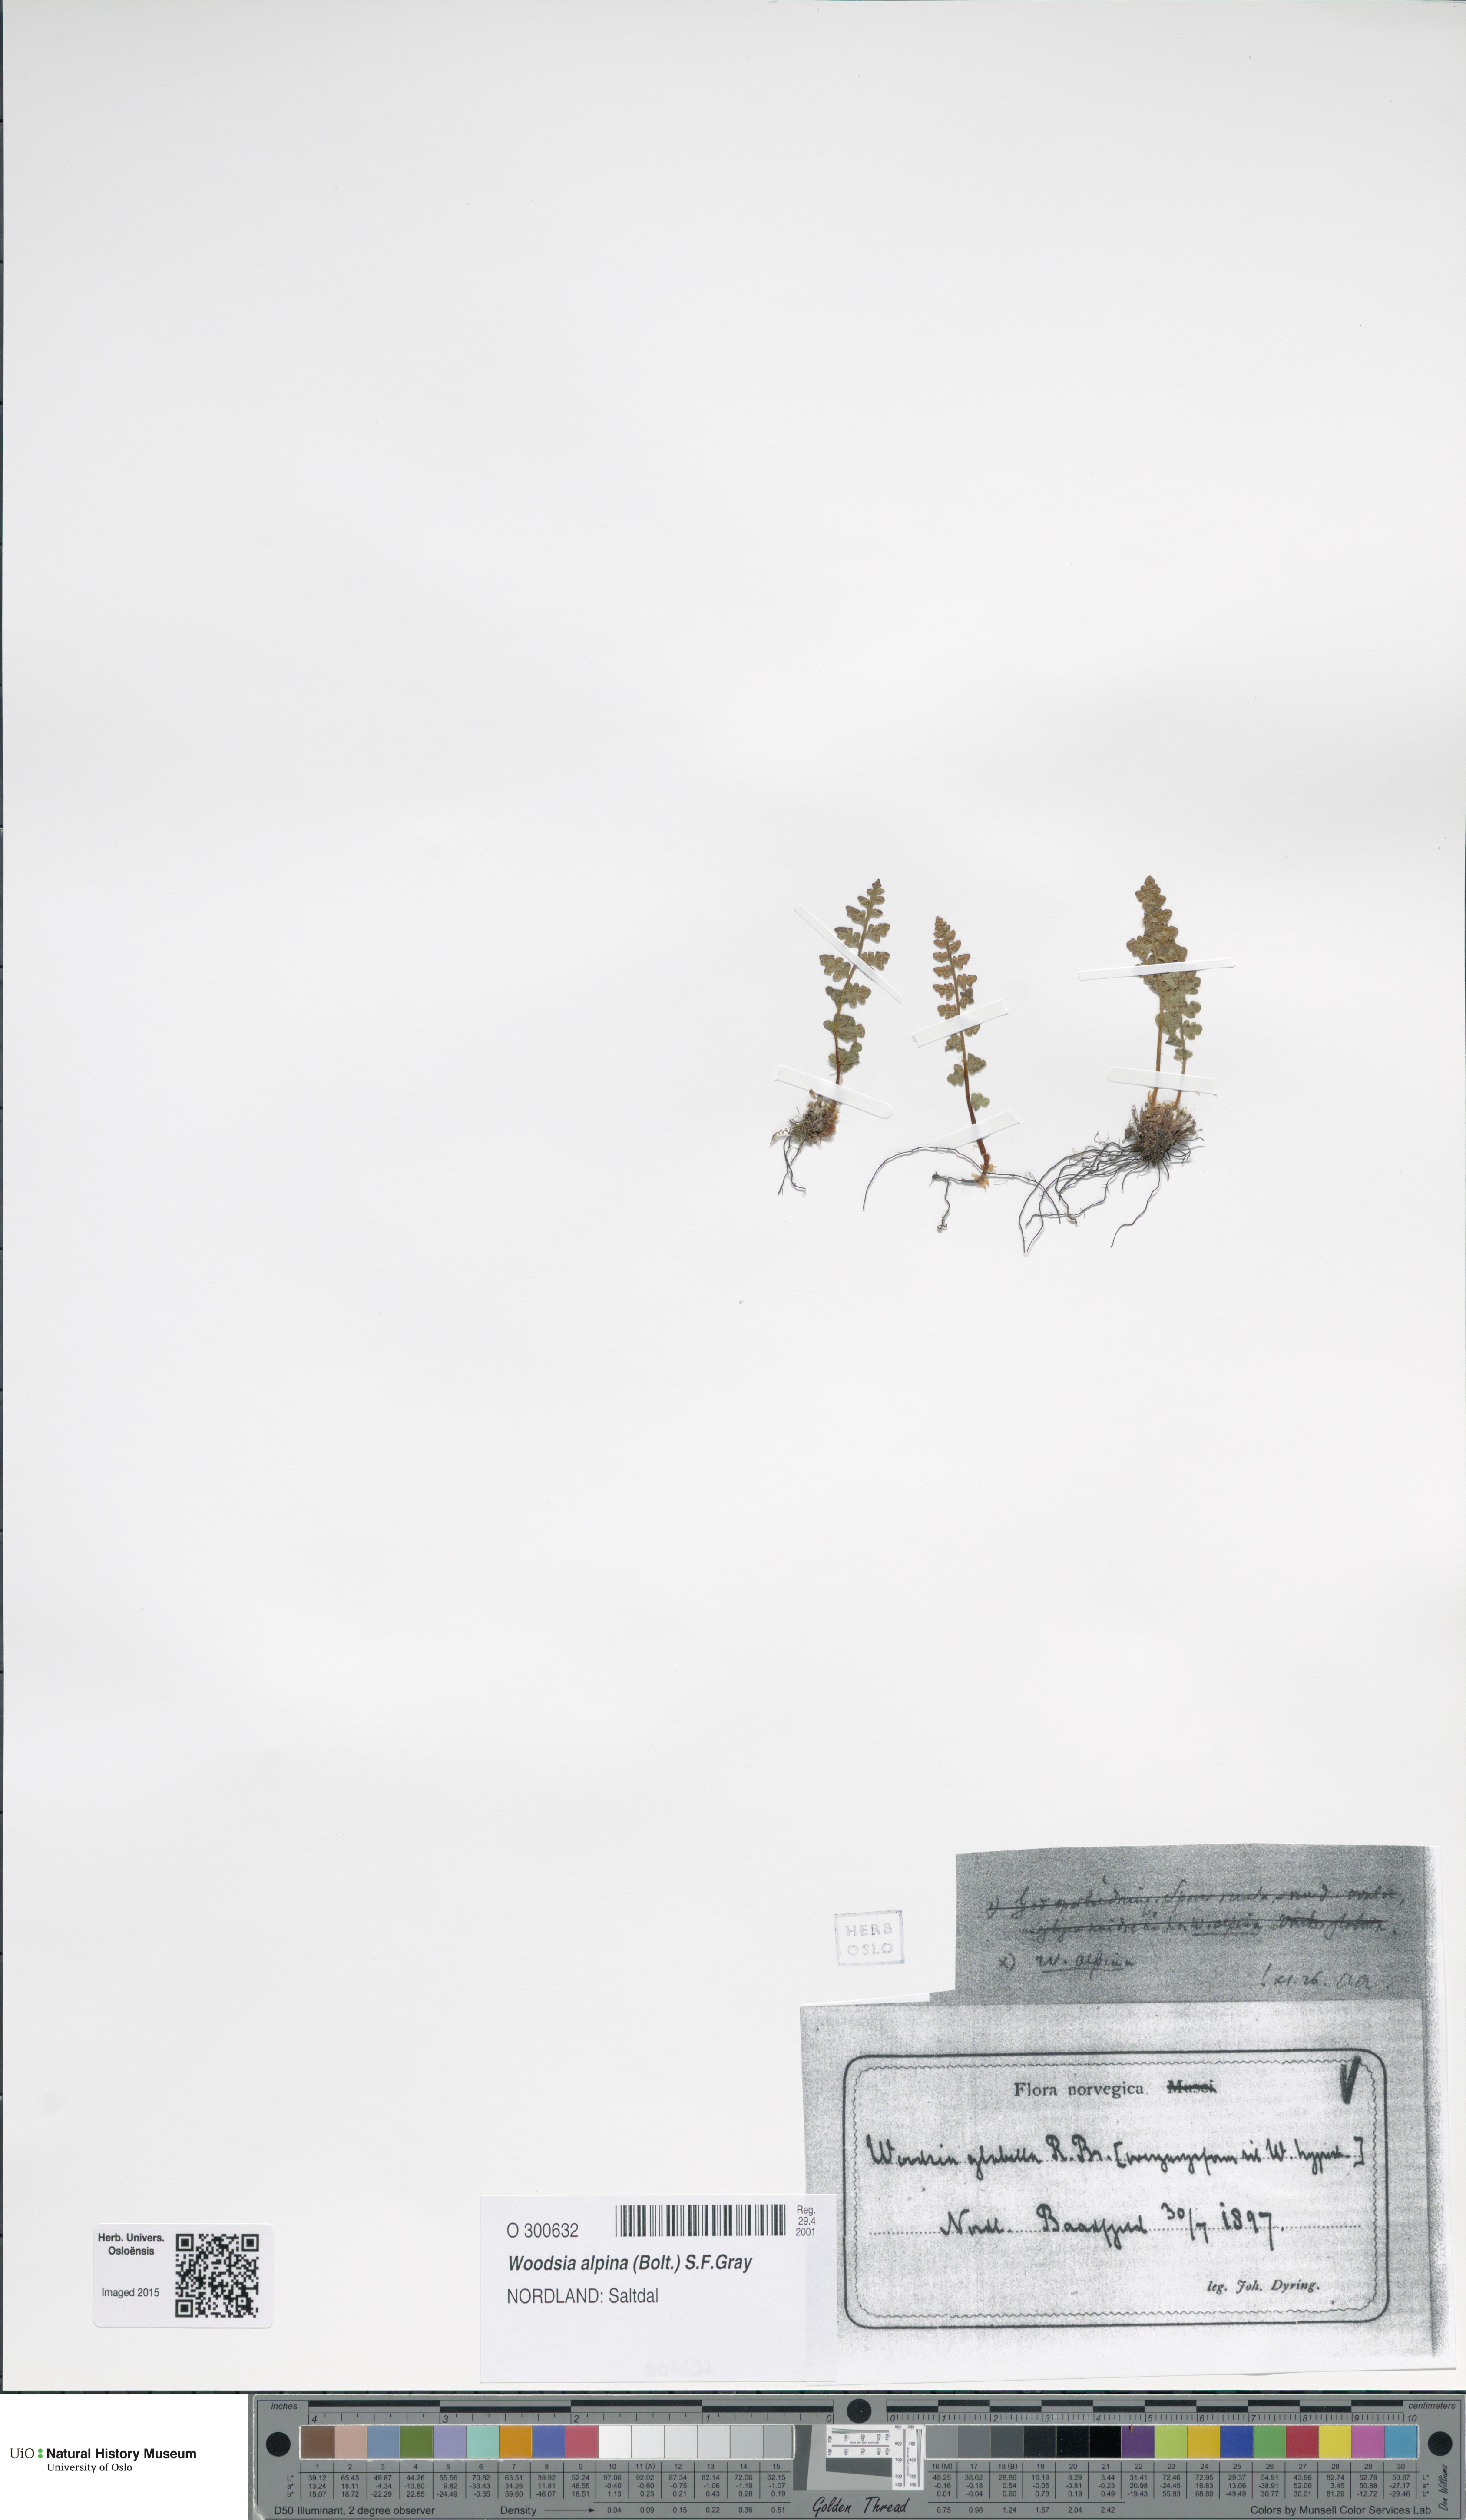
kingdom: Plantae
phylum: Tracheophyta
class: Polypodiopsida
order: Polypodiales
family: Woodsiaceae
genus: Woodsia
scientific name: Woodsia alpina
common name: Alpine woodsia
